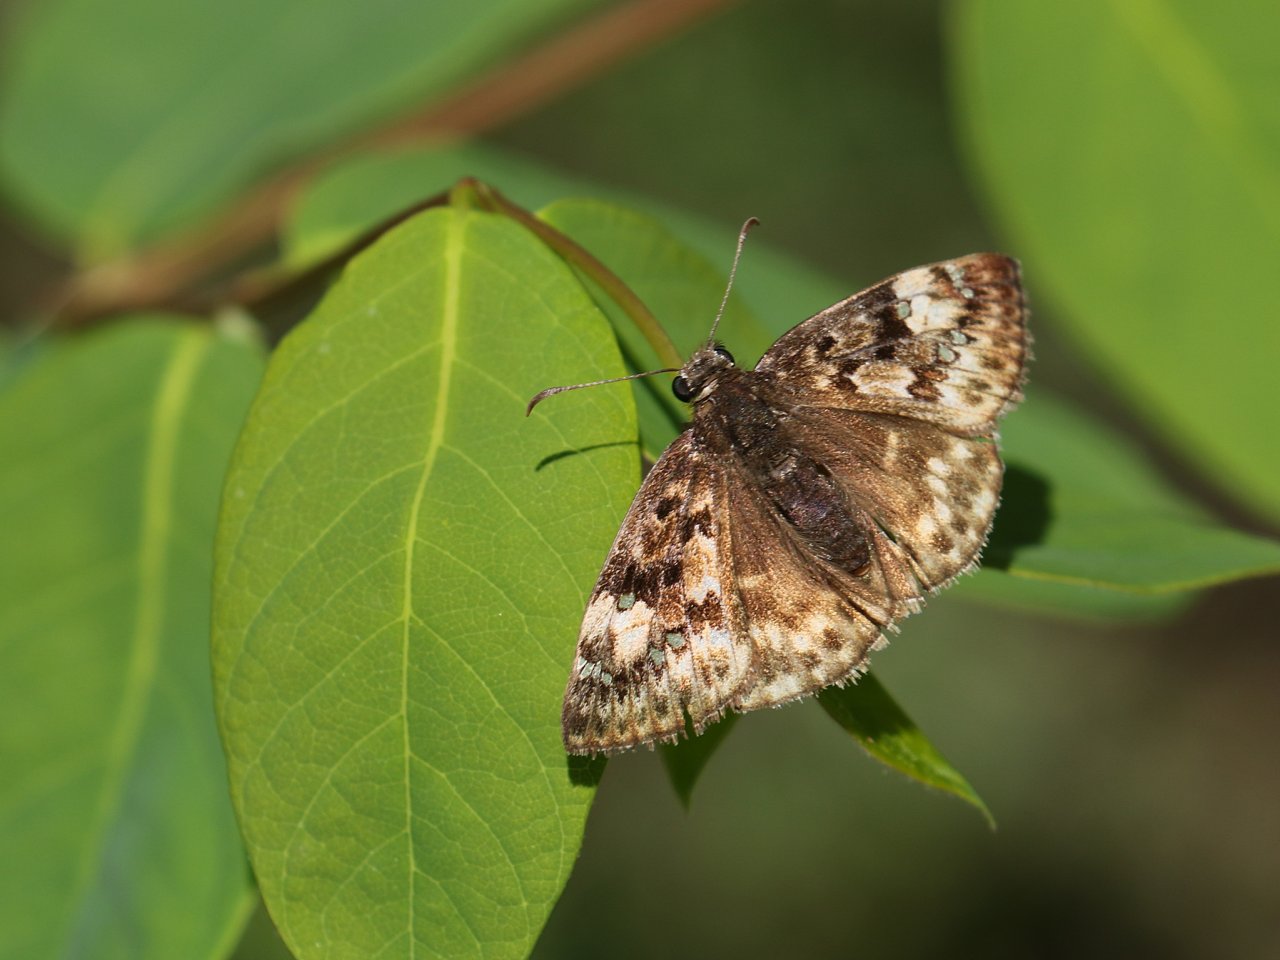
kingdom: Animalia
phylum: Arthropoda
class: Insecta
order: Lepidoptera
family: Hesperiidae
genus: Gesta
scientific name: Gesta
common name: Horace's Duskywing
